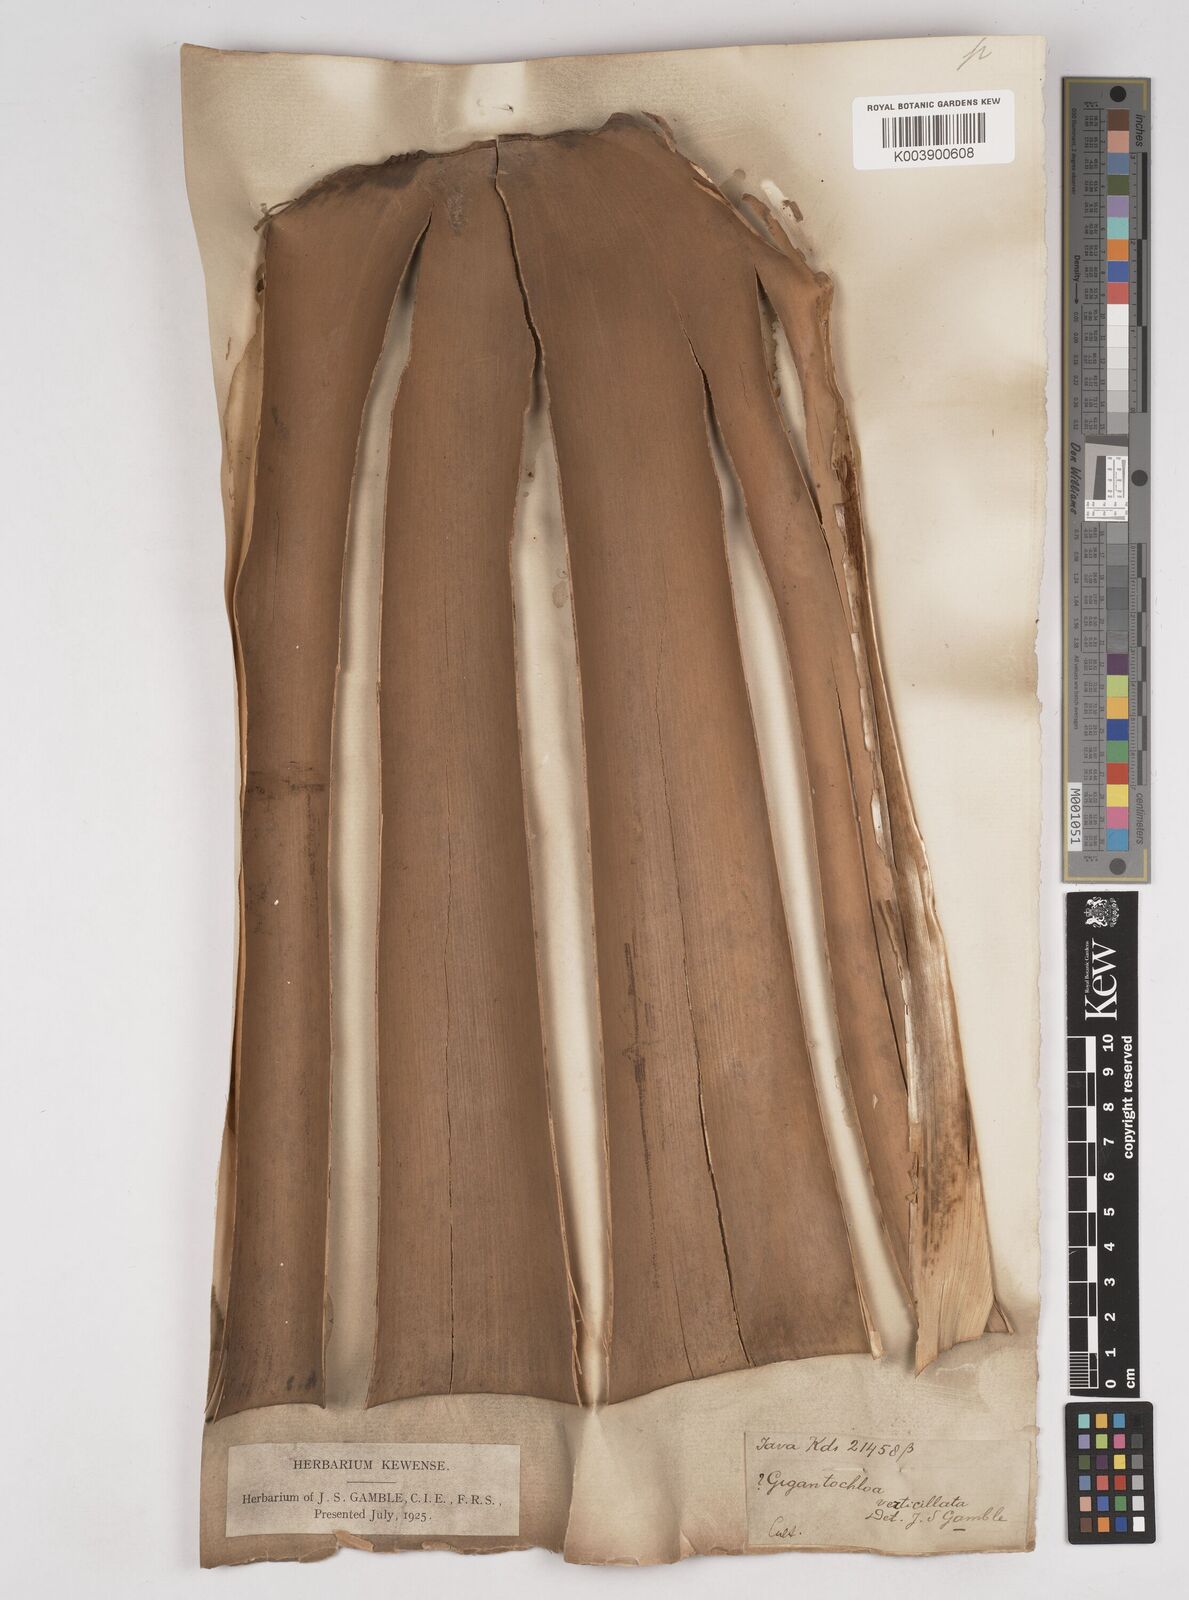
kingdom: Plantae
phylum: Tracheophyta
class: Liliopsida
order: Poales
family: Poaceae
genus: Gigantochloa
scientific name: Gigantochloa
